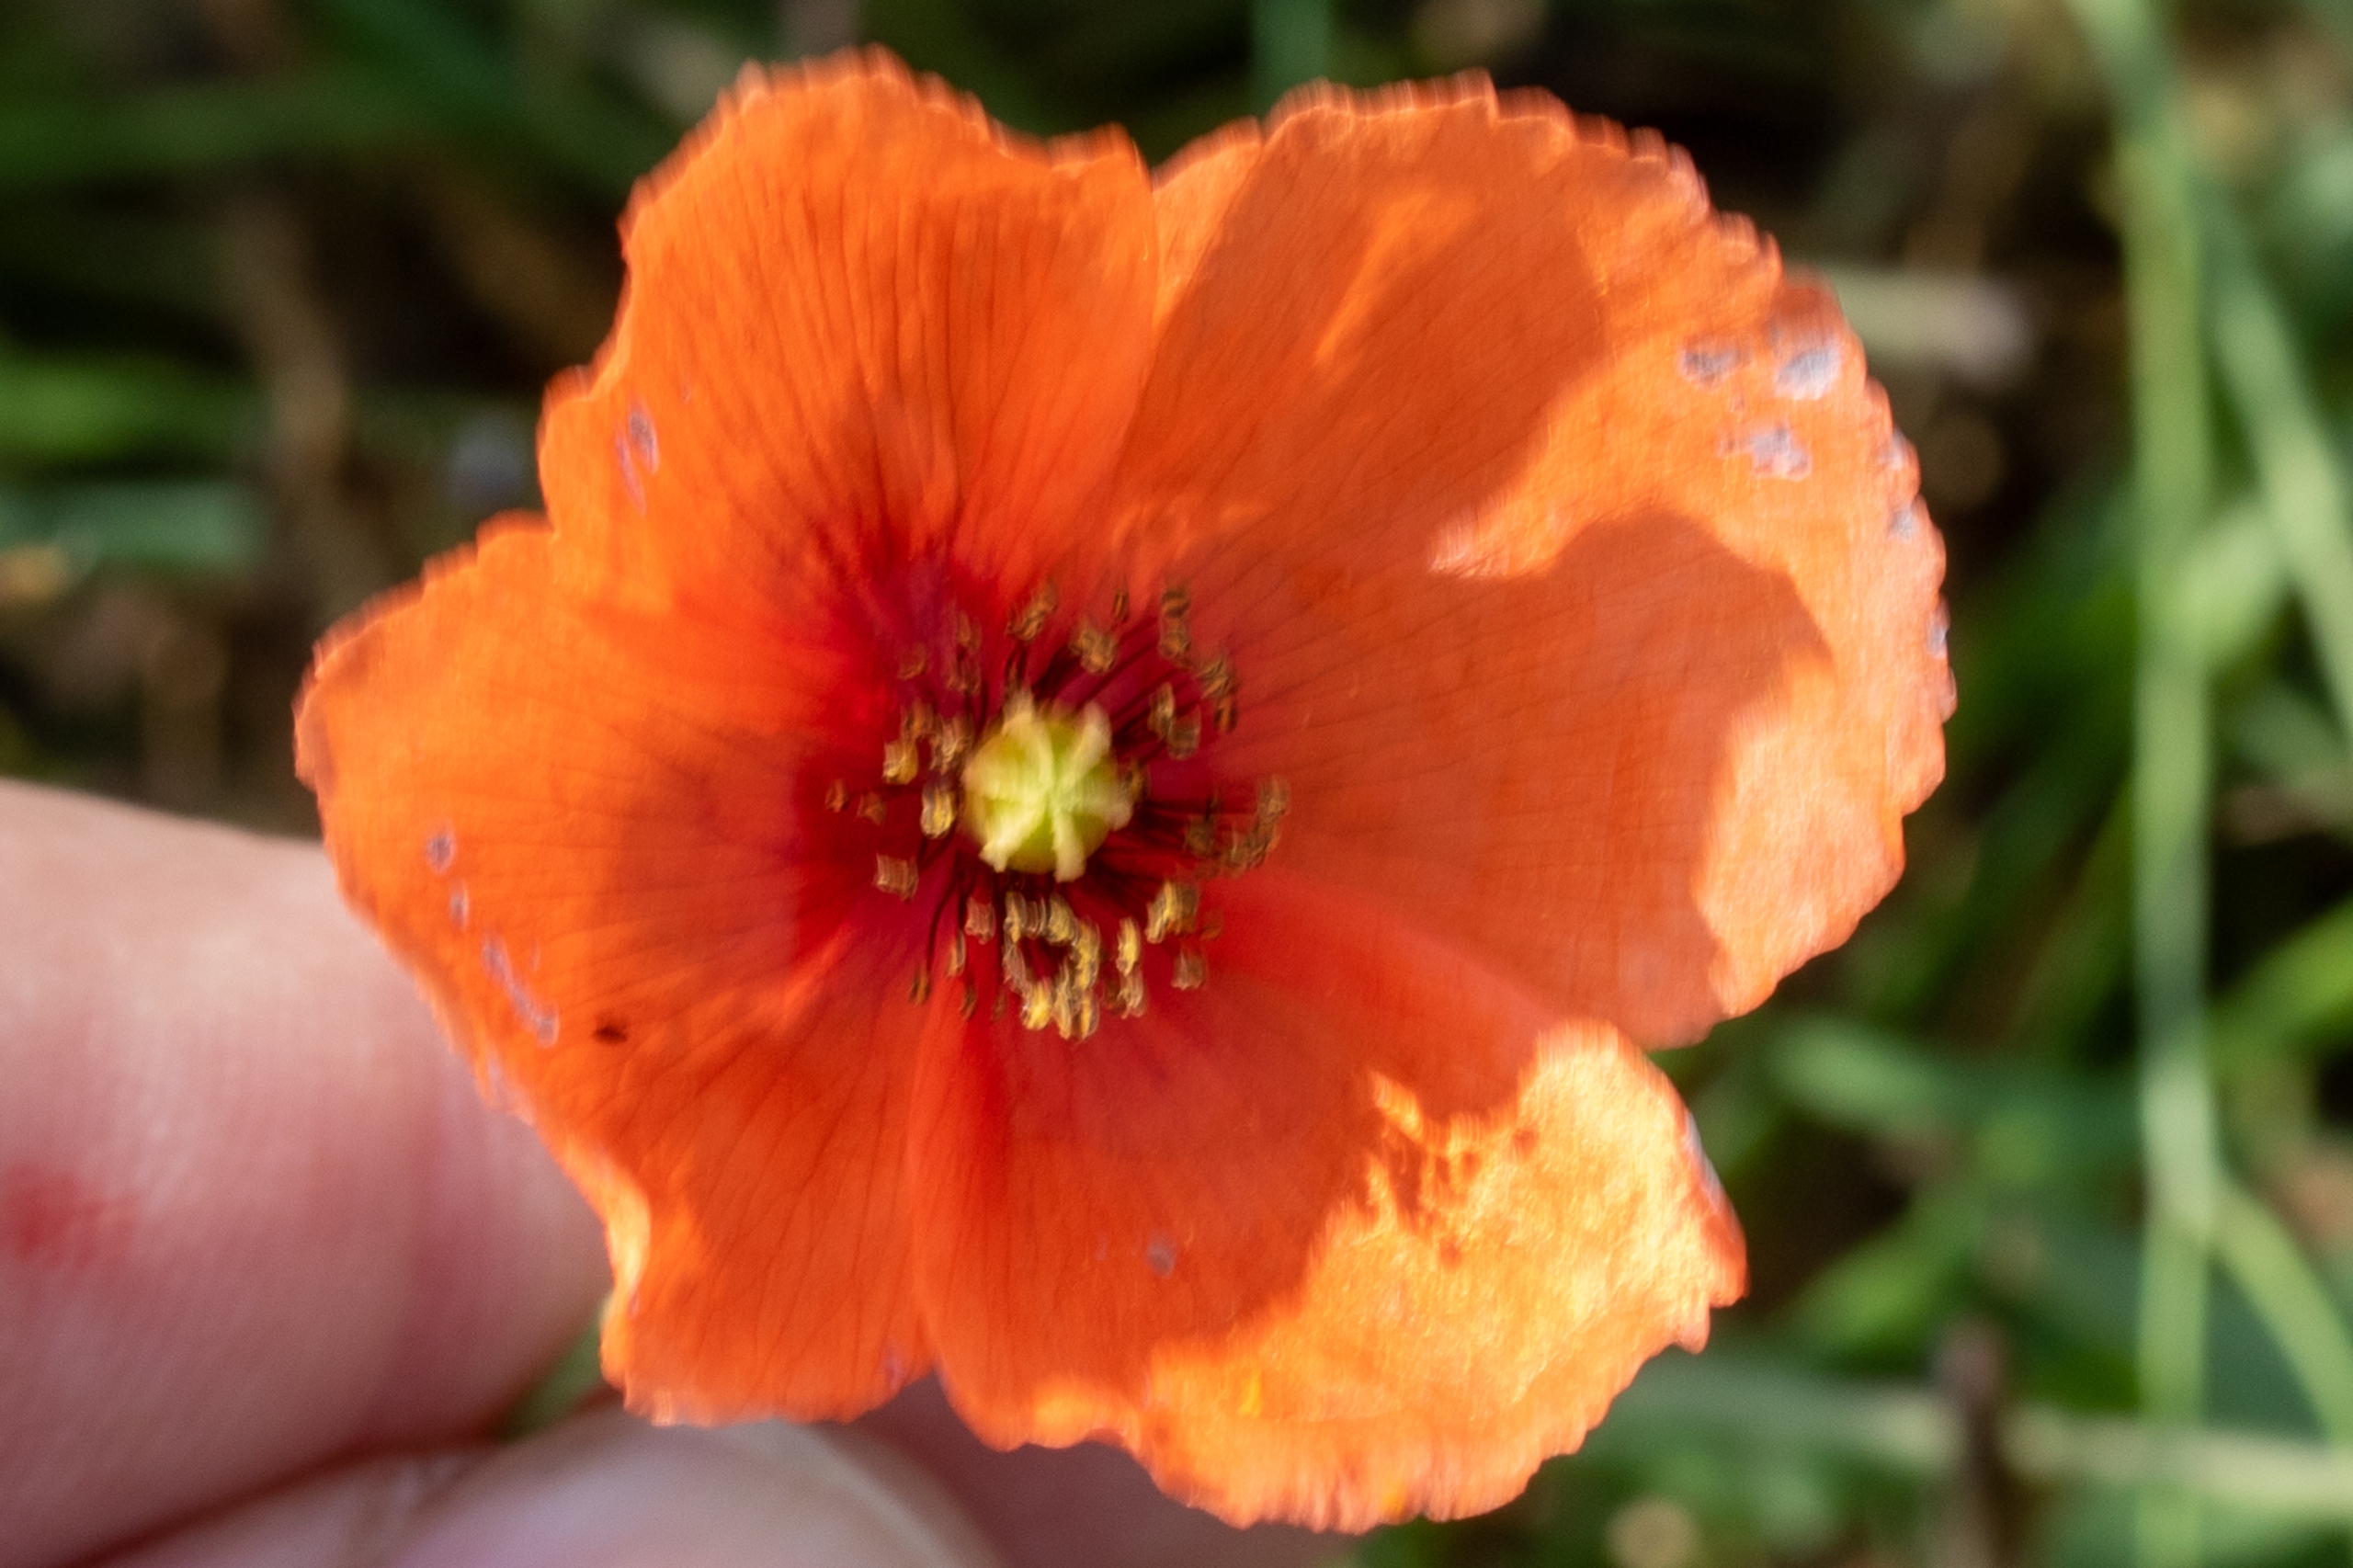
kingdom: Plantae
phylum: Tracheophyta
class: Magnoliopsida
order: Ranunculales
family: Papaveraceae
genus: Papaver
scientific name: Papaver dubium
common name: Gærde-valmue
